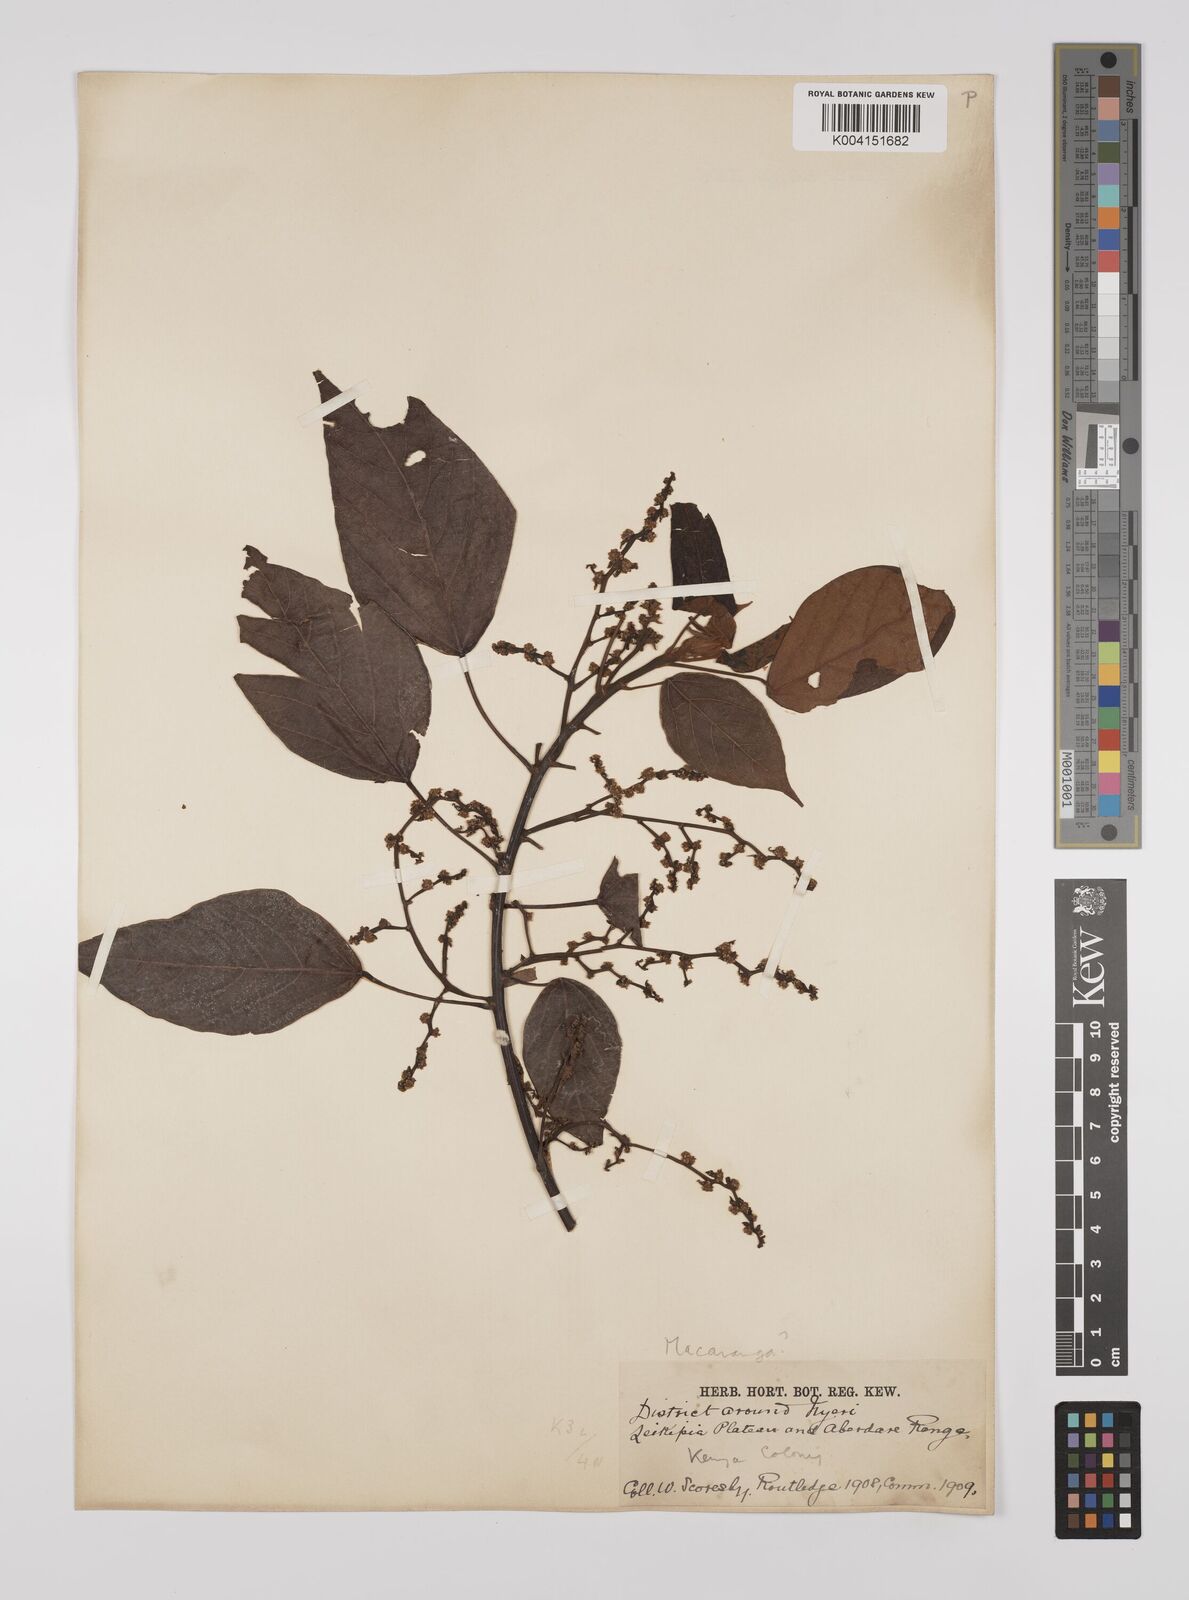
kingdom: Plantae
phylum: Tracheophyta
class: Magnoliopsida
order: Malpighiales
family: Euphorbiaceae
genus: Macaranga
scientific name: Macaranga kilimandscharica
